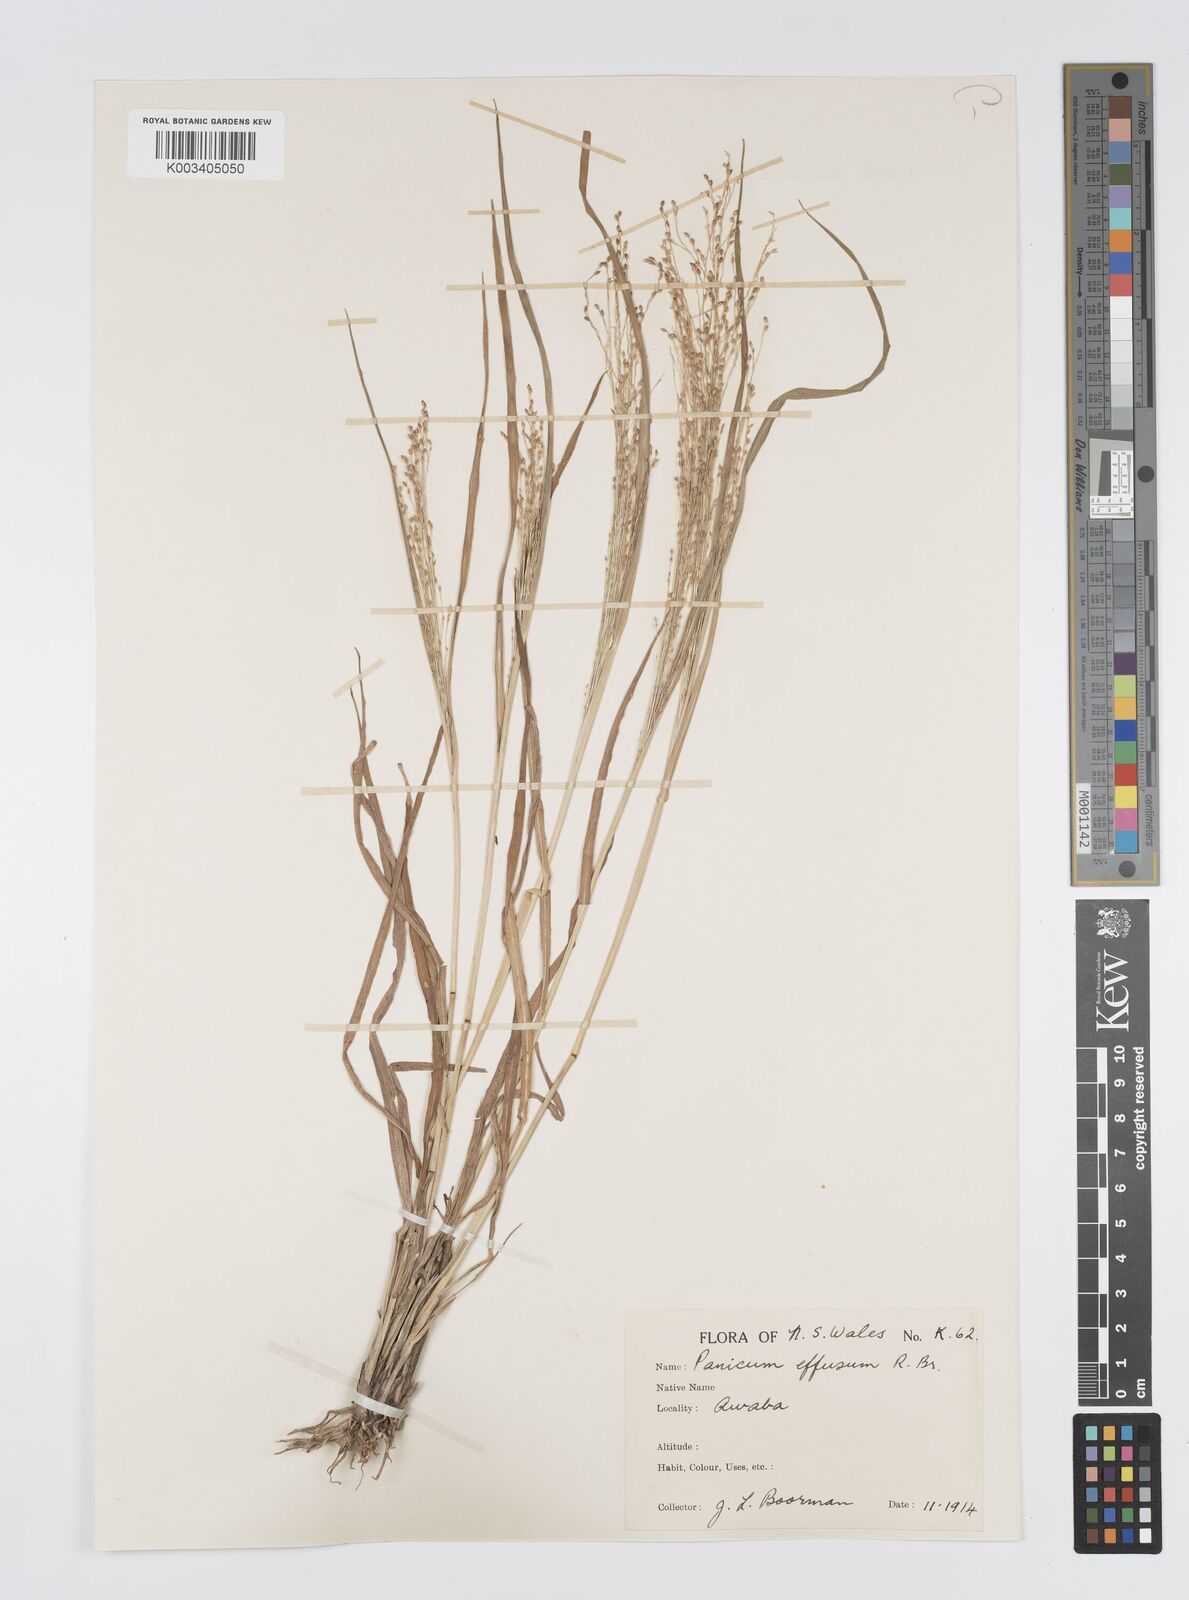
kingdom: Plantae
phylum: Tracheophyta
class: Liliopsida
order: Poales
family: Poaceae
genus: Panicum
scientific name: Panicum effusum
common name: Hairy panic grass
